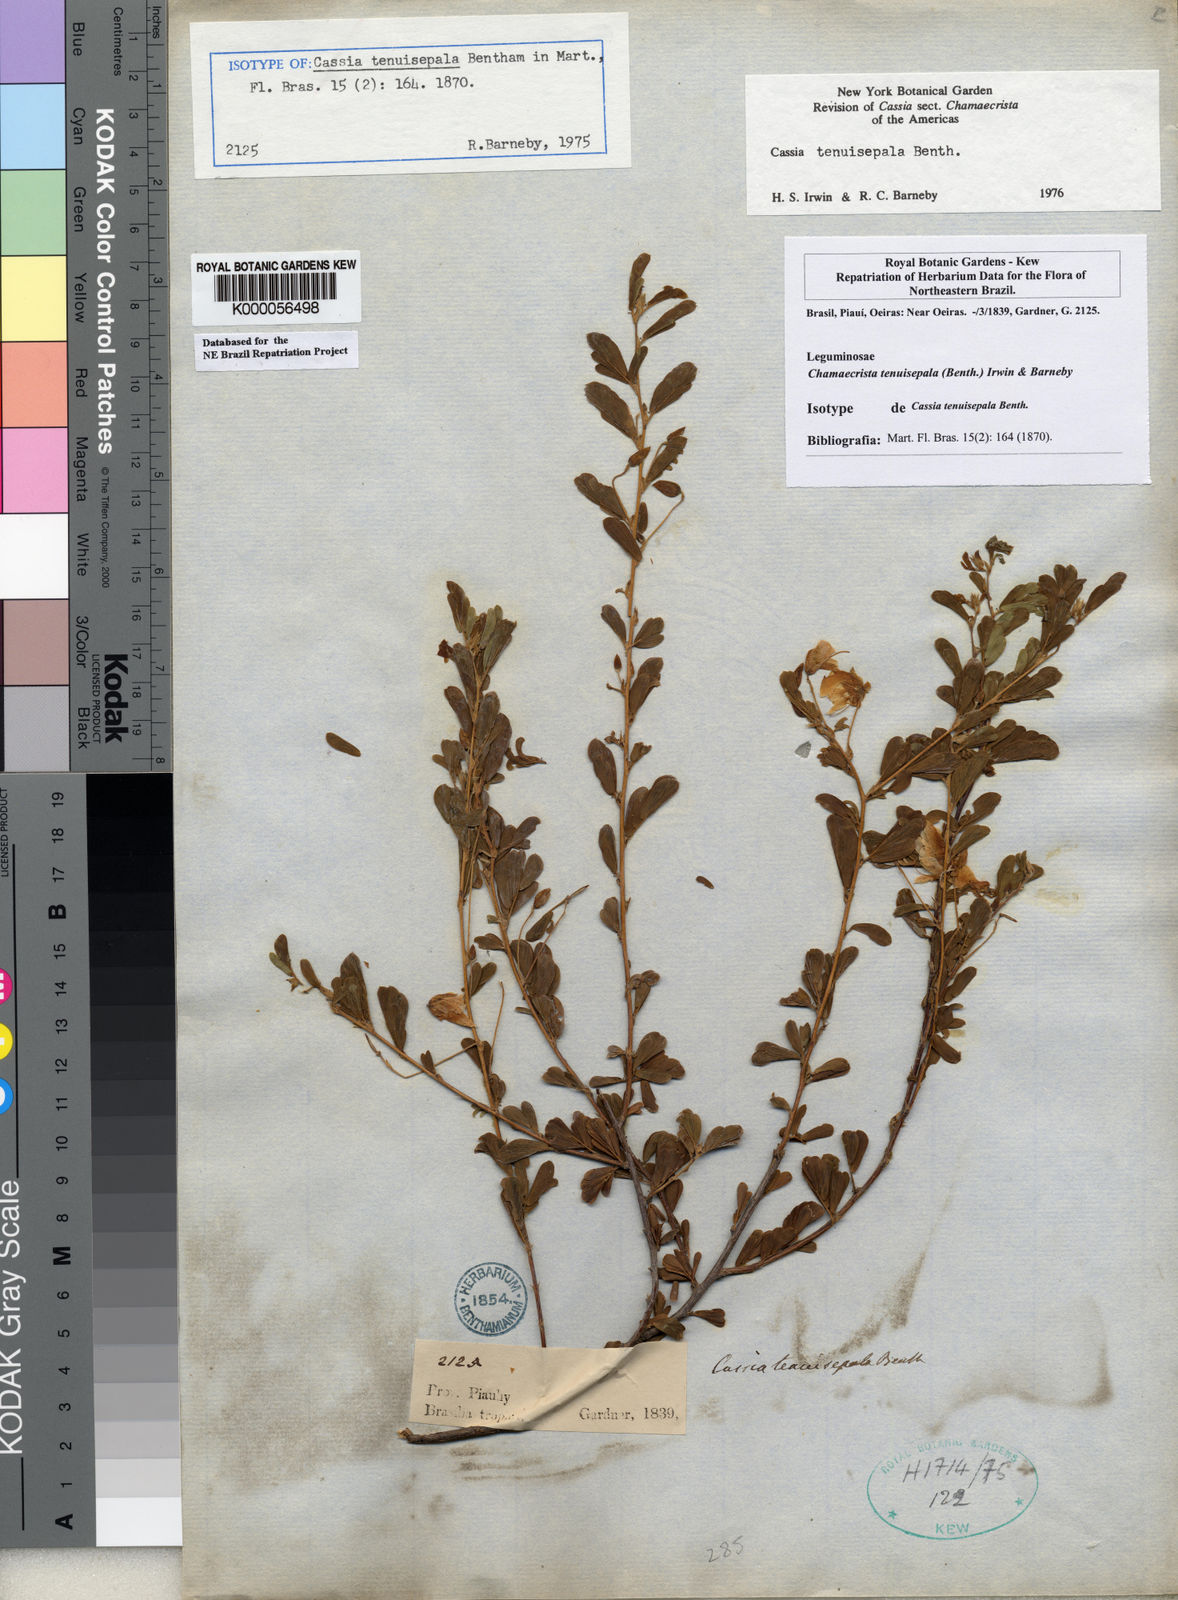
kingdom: Plantae
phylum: Tracheophyta
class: Magnoliopsida
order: Fabales
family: Fabaceae
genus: Chamaecrista
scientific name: Chamaecrista tenuisepala
